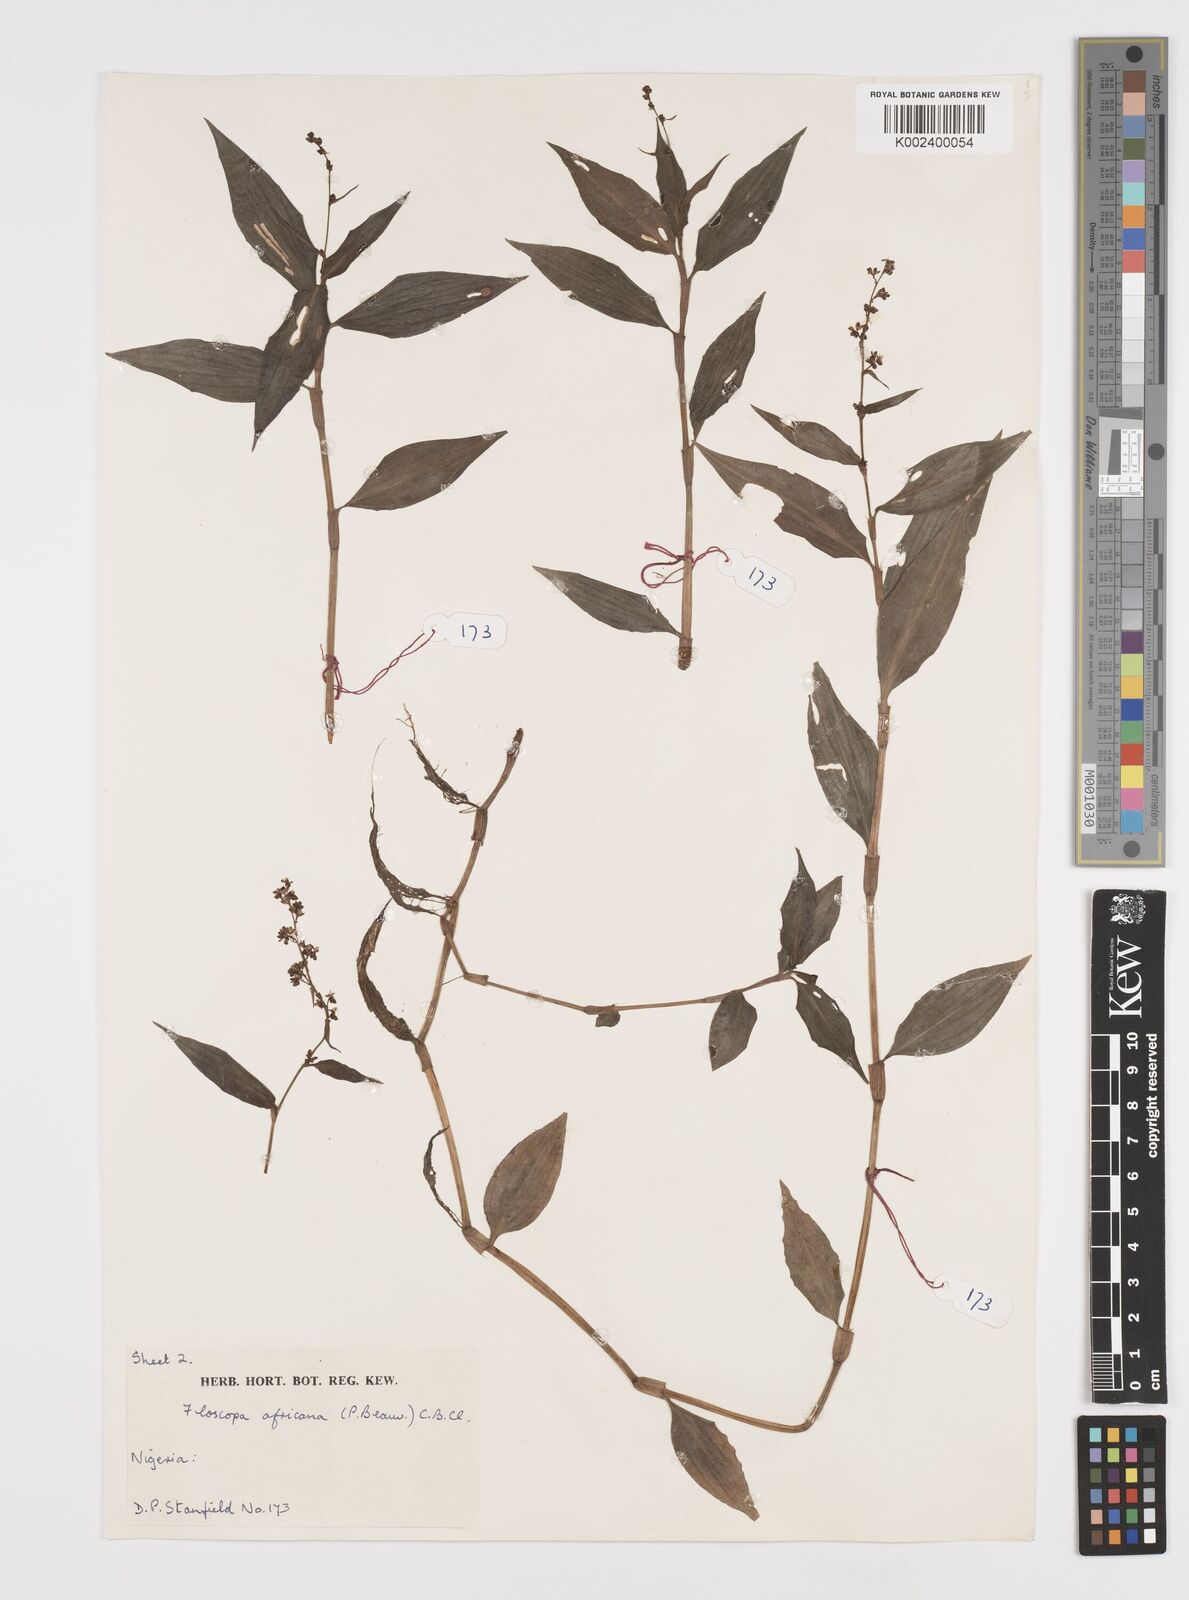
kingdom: Plantae
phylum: Tracheophyta
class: Liliopsida
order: Commelinales
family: Commelinaceae
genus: Floscopa
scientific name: Floscopa africana
